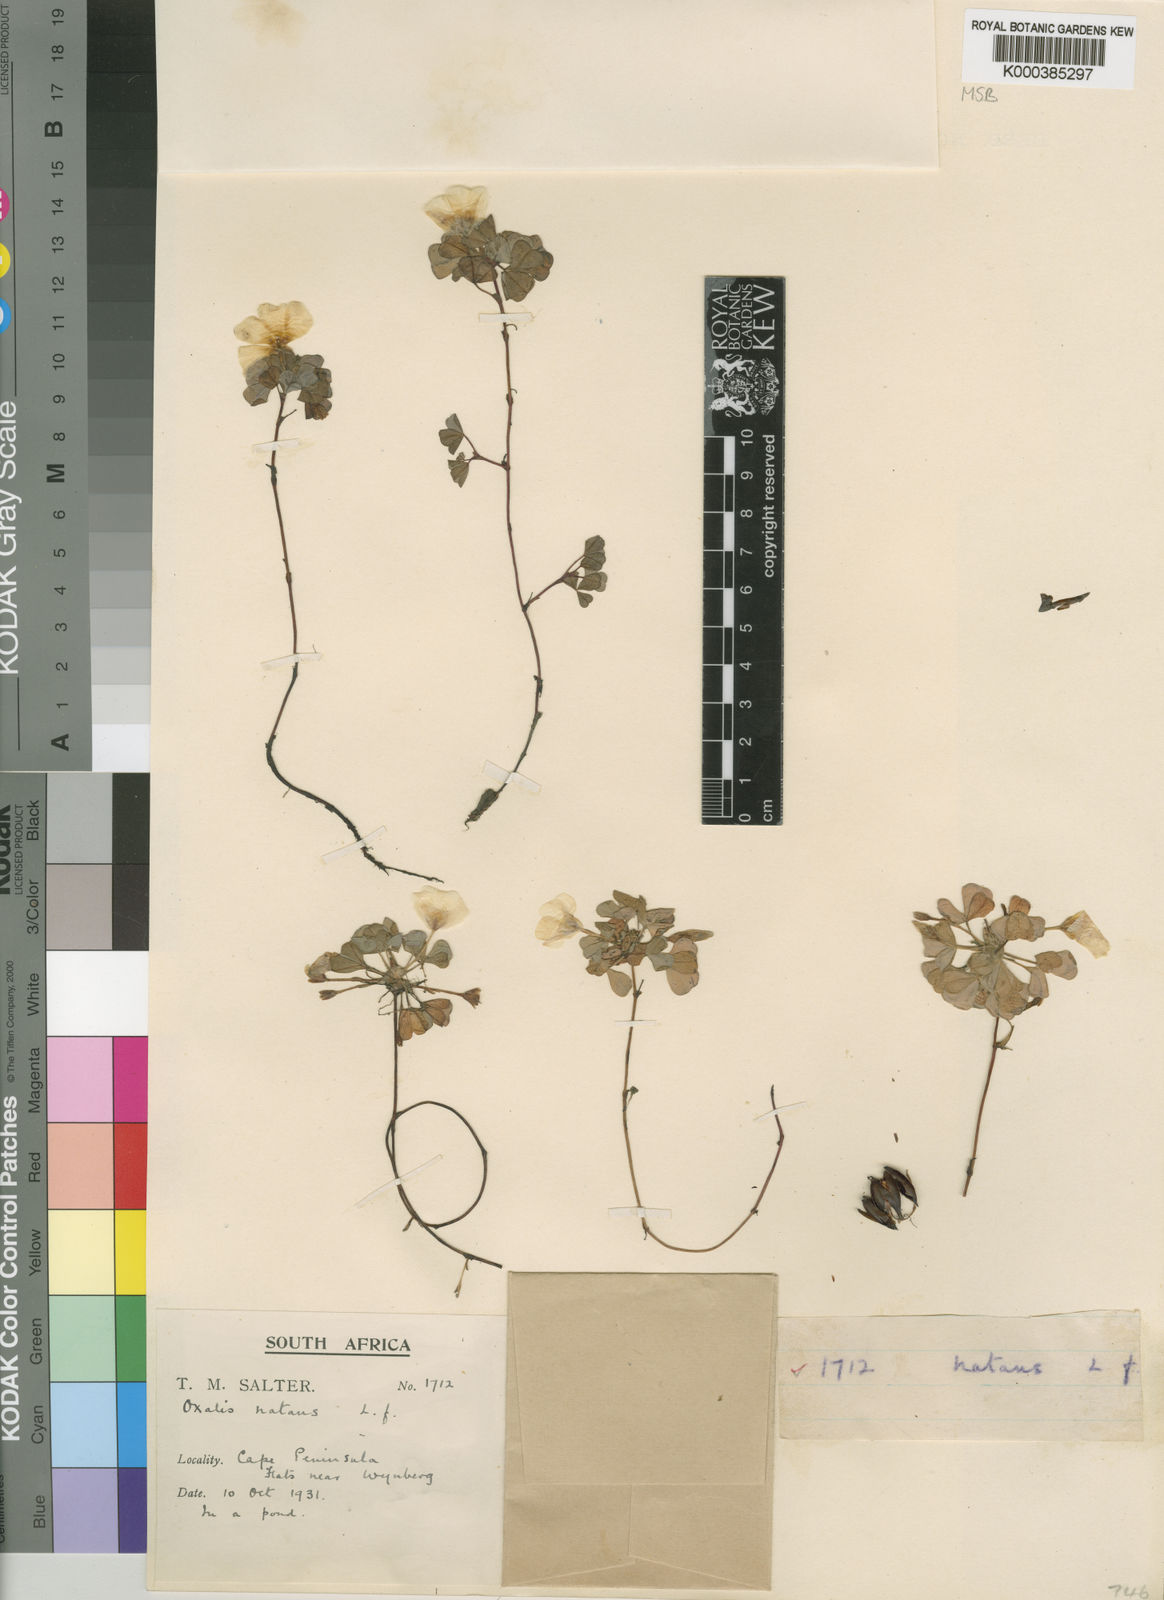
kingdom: Plantae
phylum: Tracheophyta
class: Magnoliopsida
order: Oxalidales
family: Oxalidaceae
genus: Oxalis
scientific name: Oxalis
